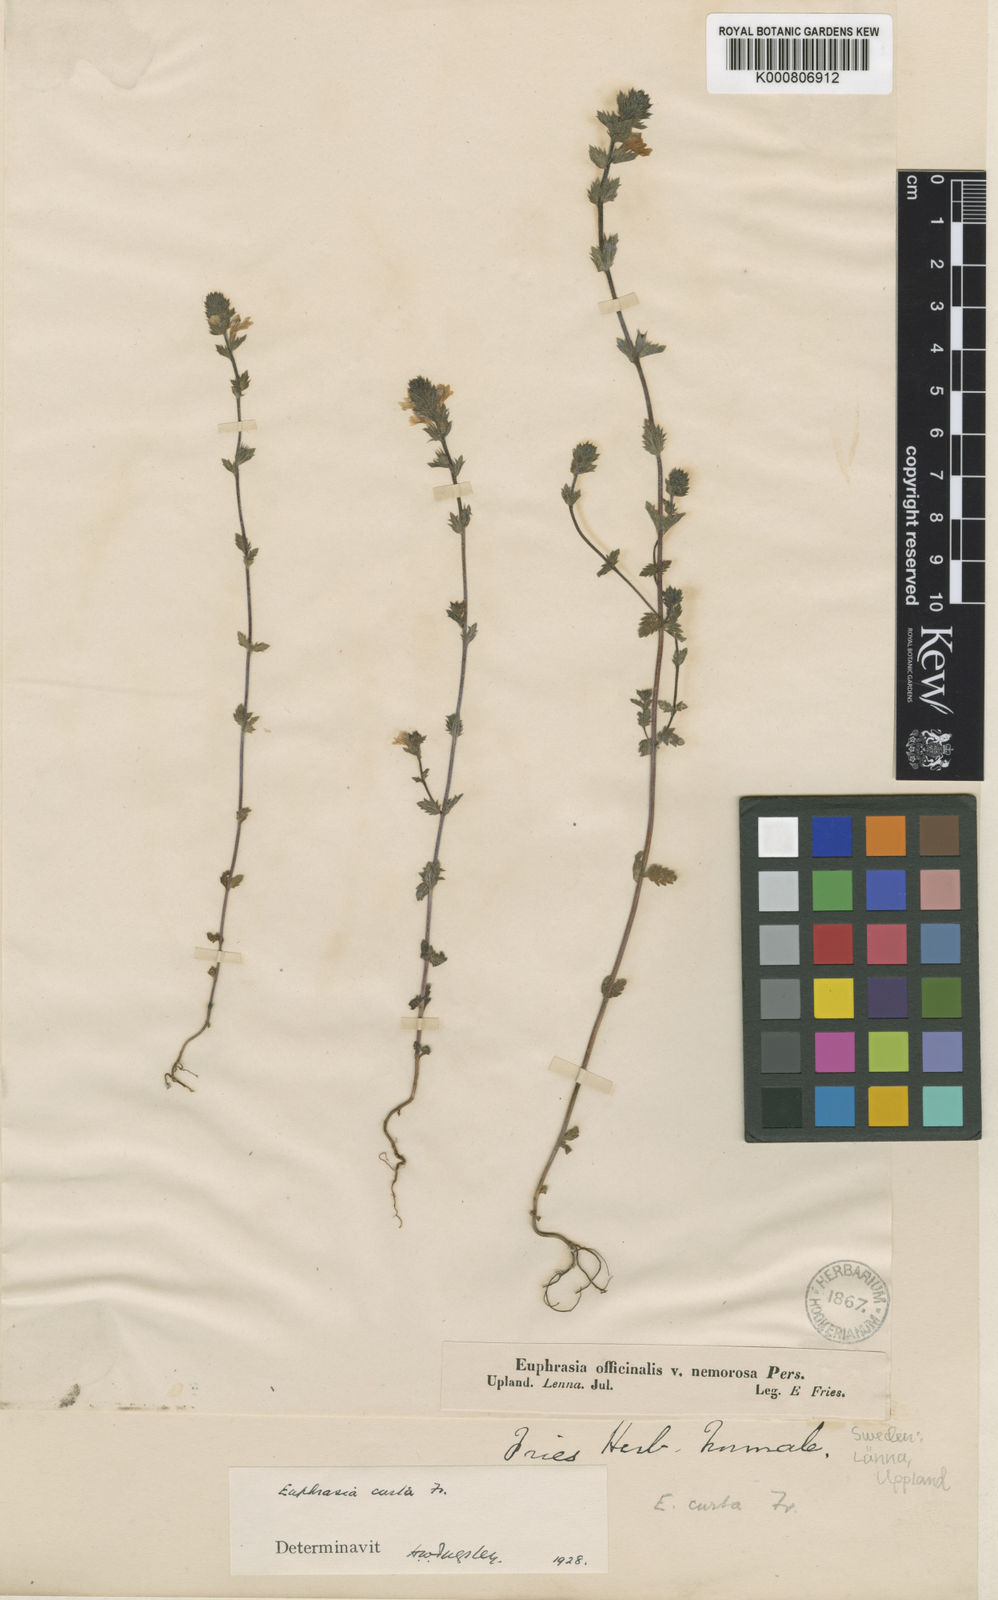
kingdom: Plantae
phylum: Tracheophyta
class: Magnoliopsida
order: Lamiales
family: Orobanchaceae
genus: Euphrasia
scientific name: Euphrasia nemorosa
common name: Common eyebright
